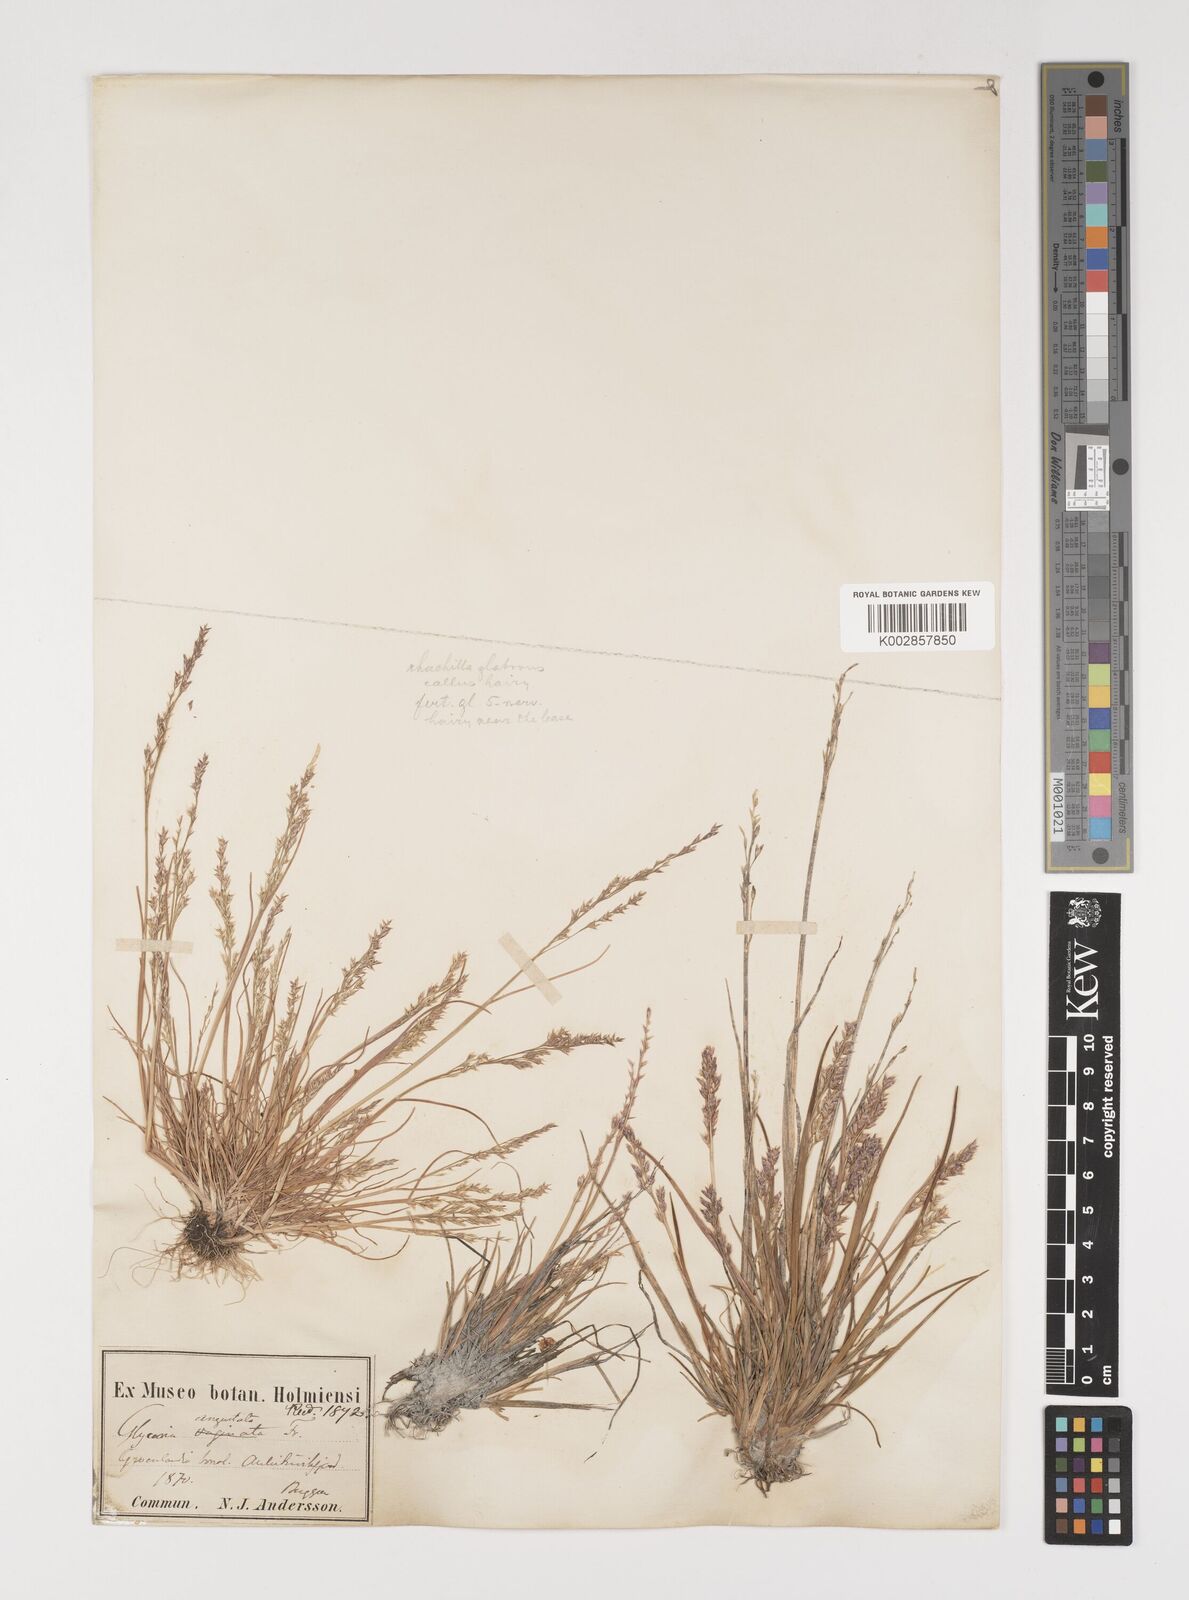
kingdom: Plantae
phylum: Tracheophyta
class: Liliopsida
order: Poales
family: Poaceae
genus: Puccinellia
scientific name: Puccinellia vaginata
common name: Arctic tussock alkaligrass
